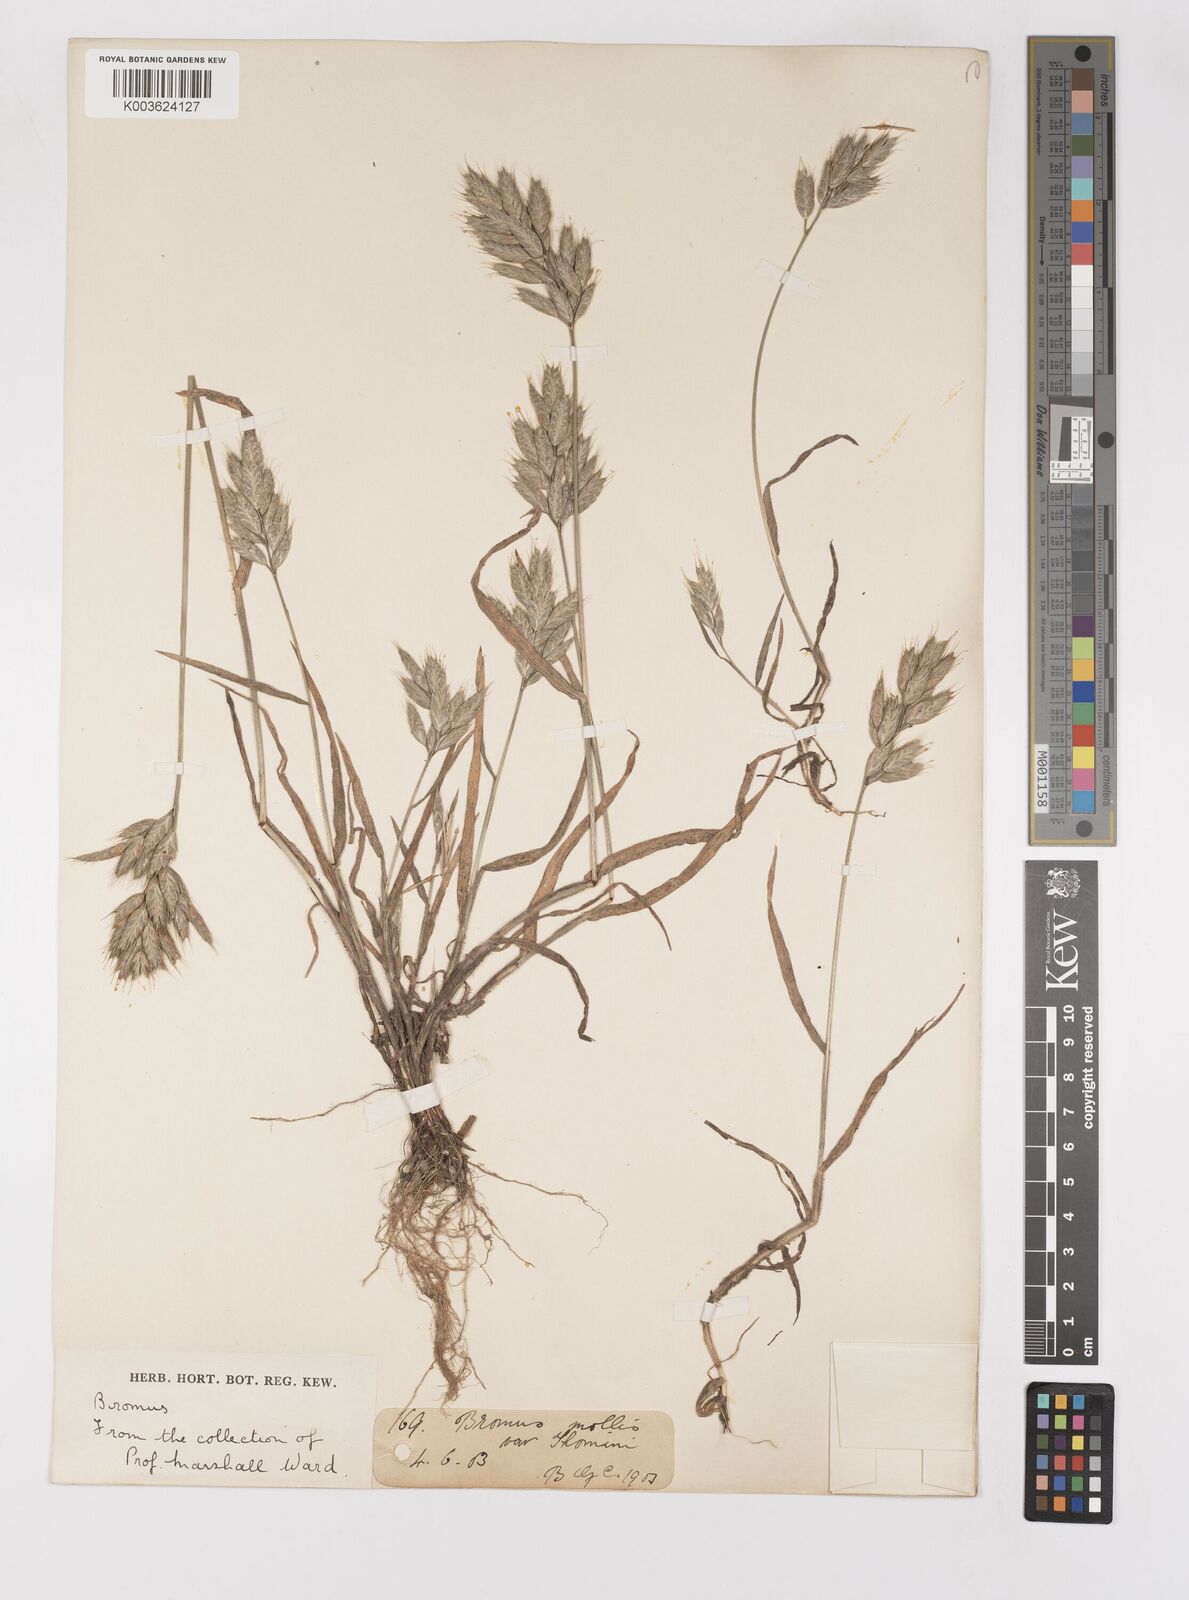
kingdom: Plantae
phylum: Tracheophyta
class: Liliopsida
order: Poales
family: Poaceae
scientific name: Poaceae
